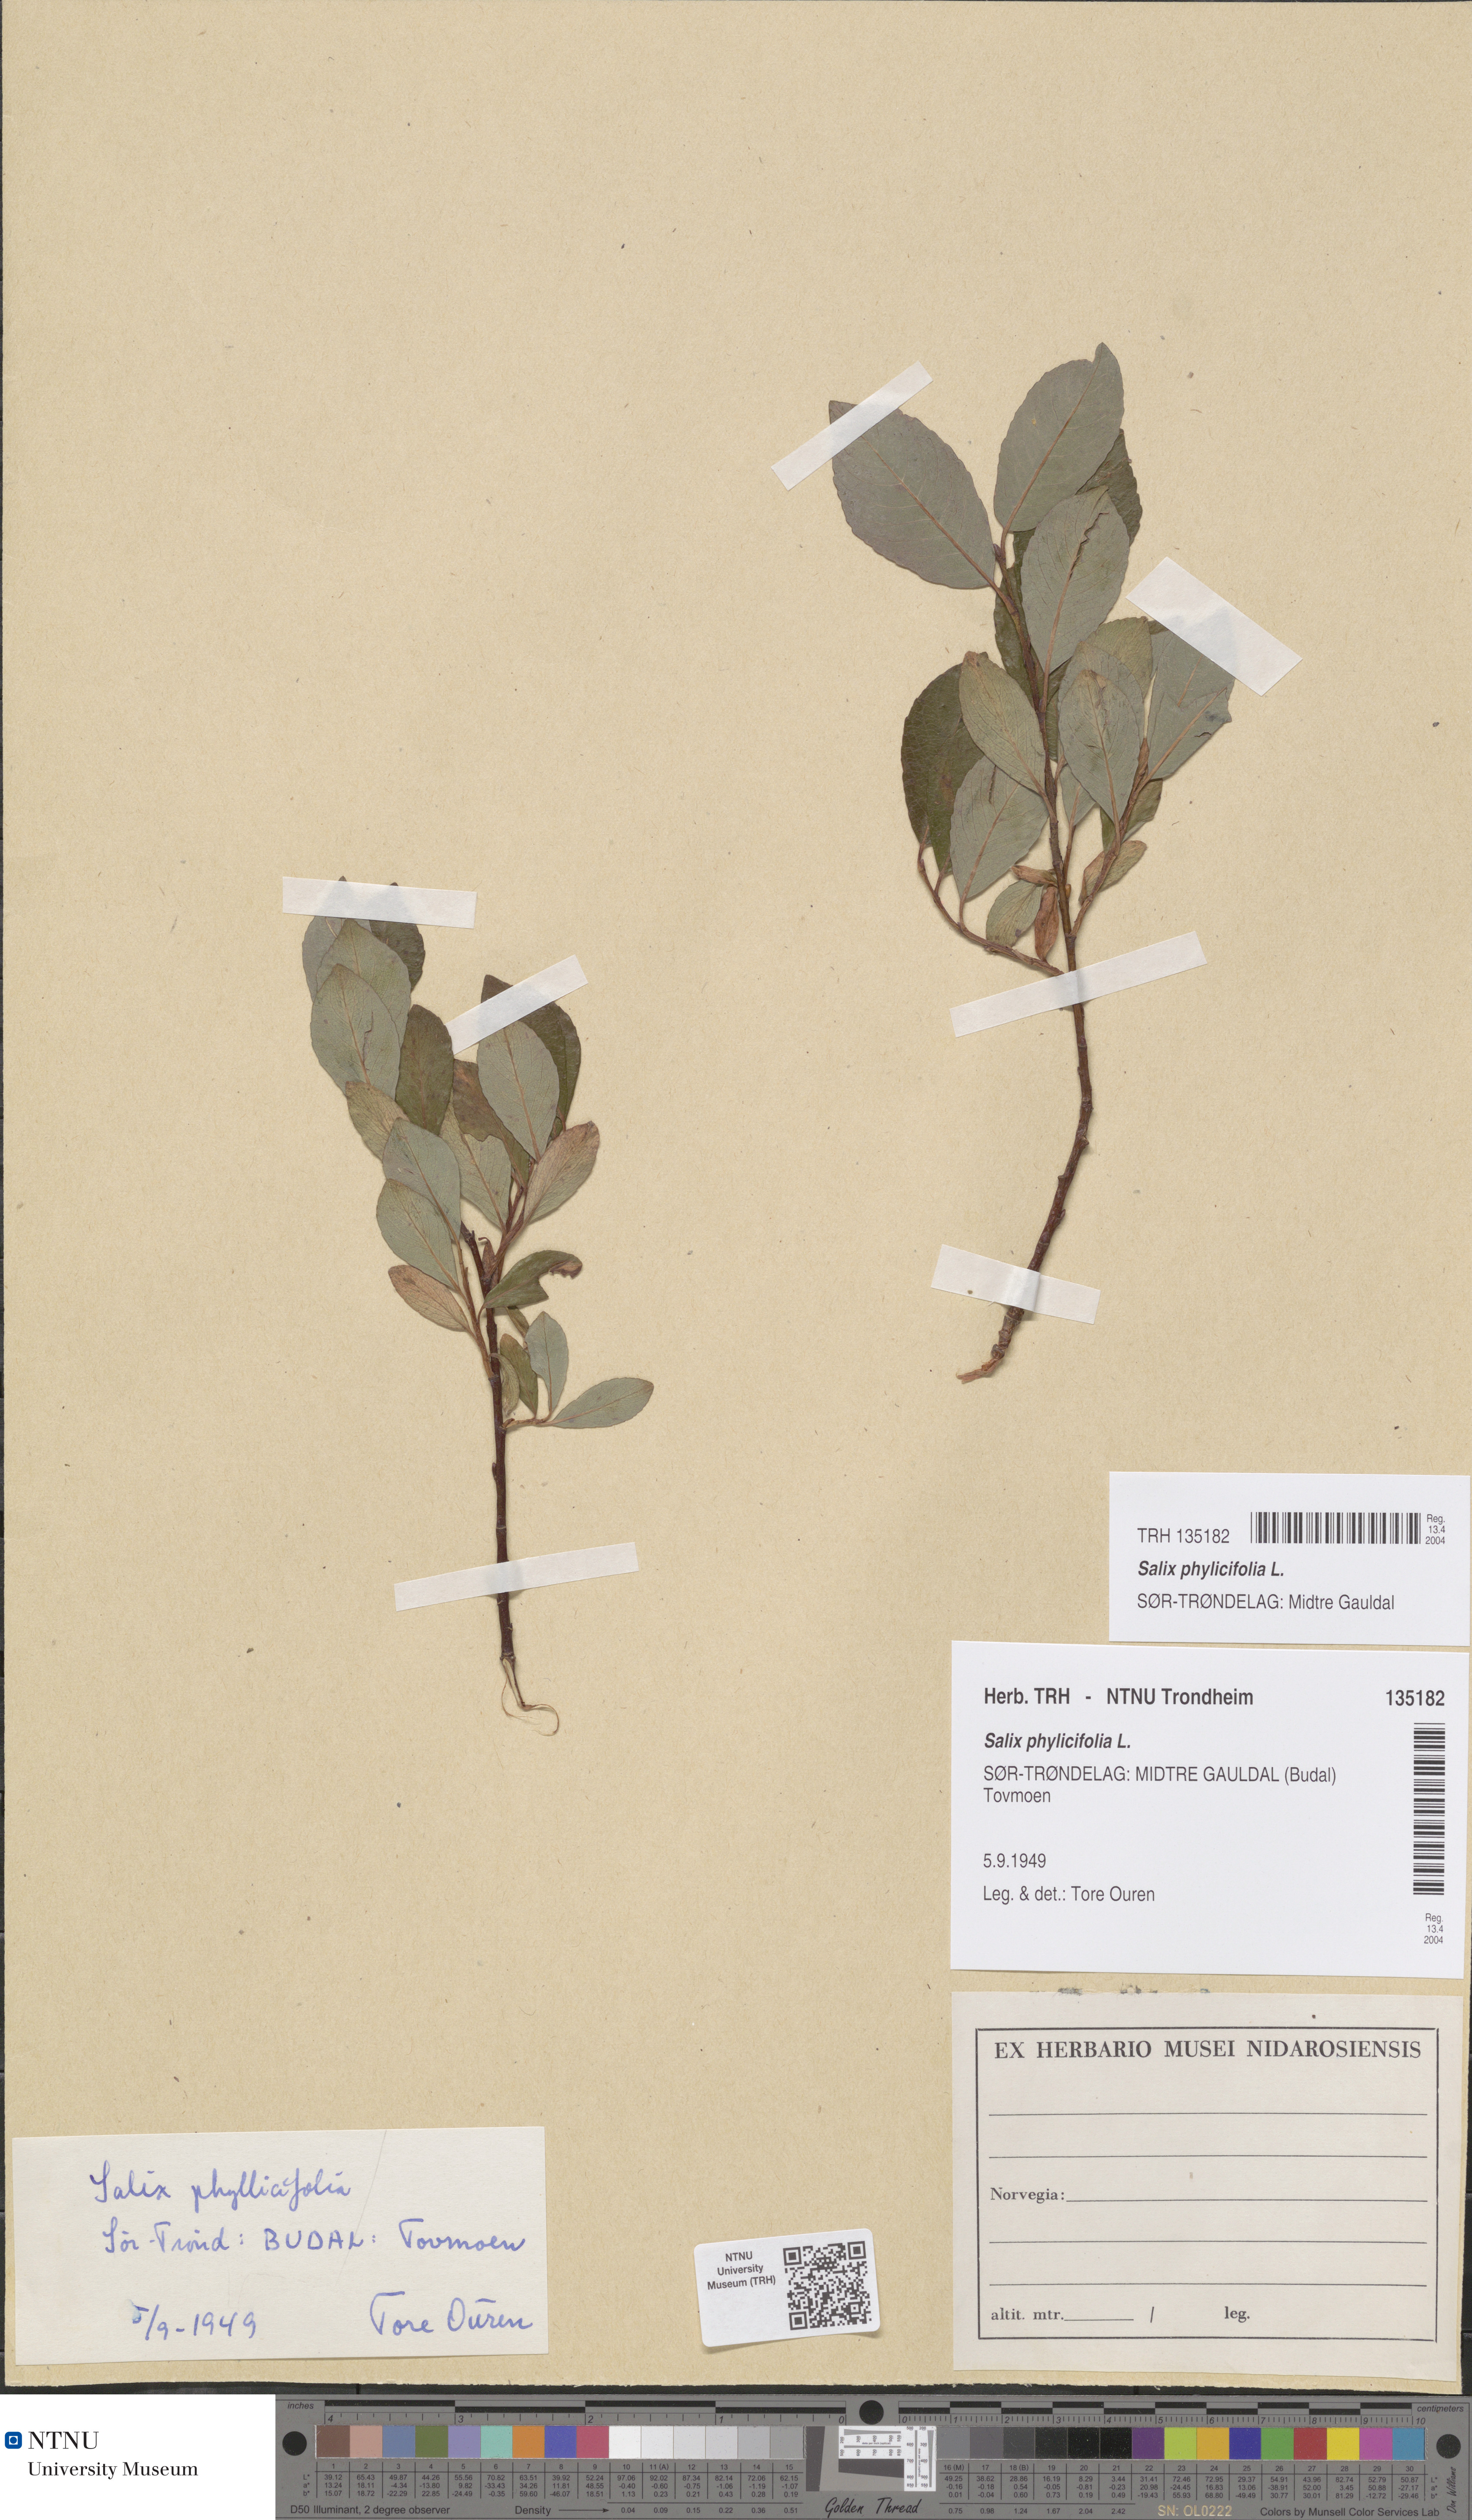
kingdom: Plantae
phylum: Tracheophyta
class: Magnoliopsida
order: Malpighiales
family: Salicaceae
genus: Salix
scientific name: Salix phylicifolia
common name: Tea-leaved willow
